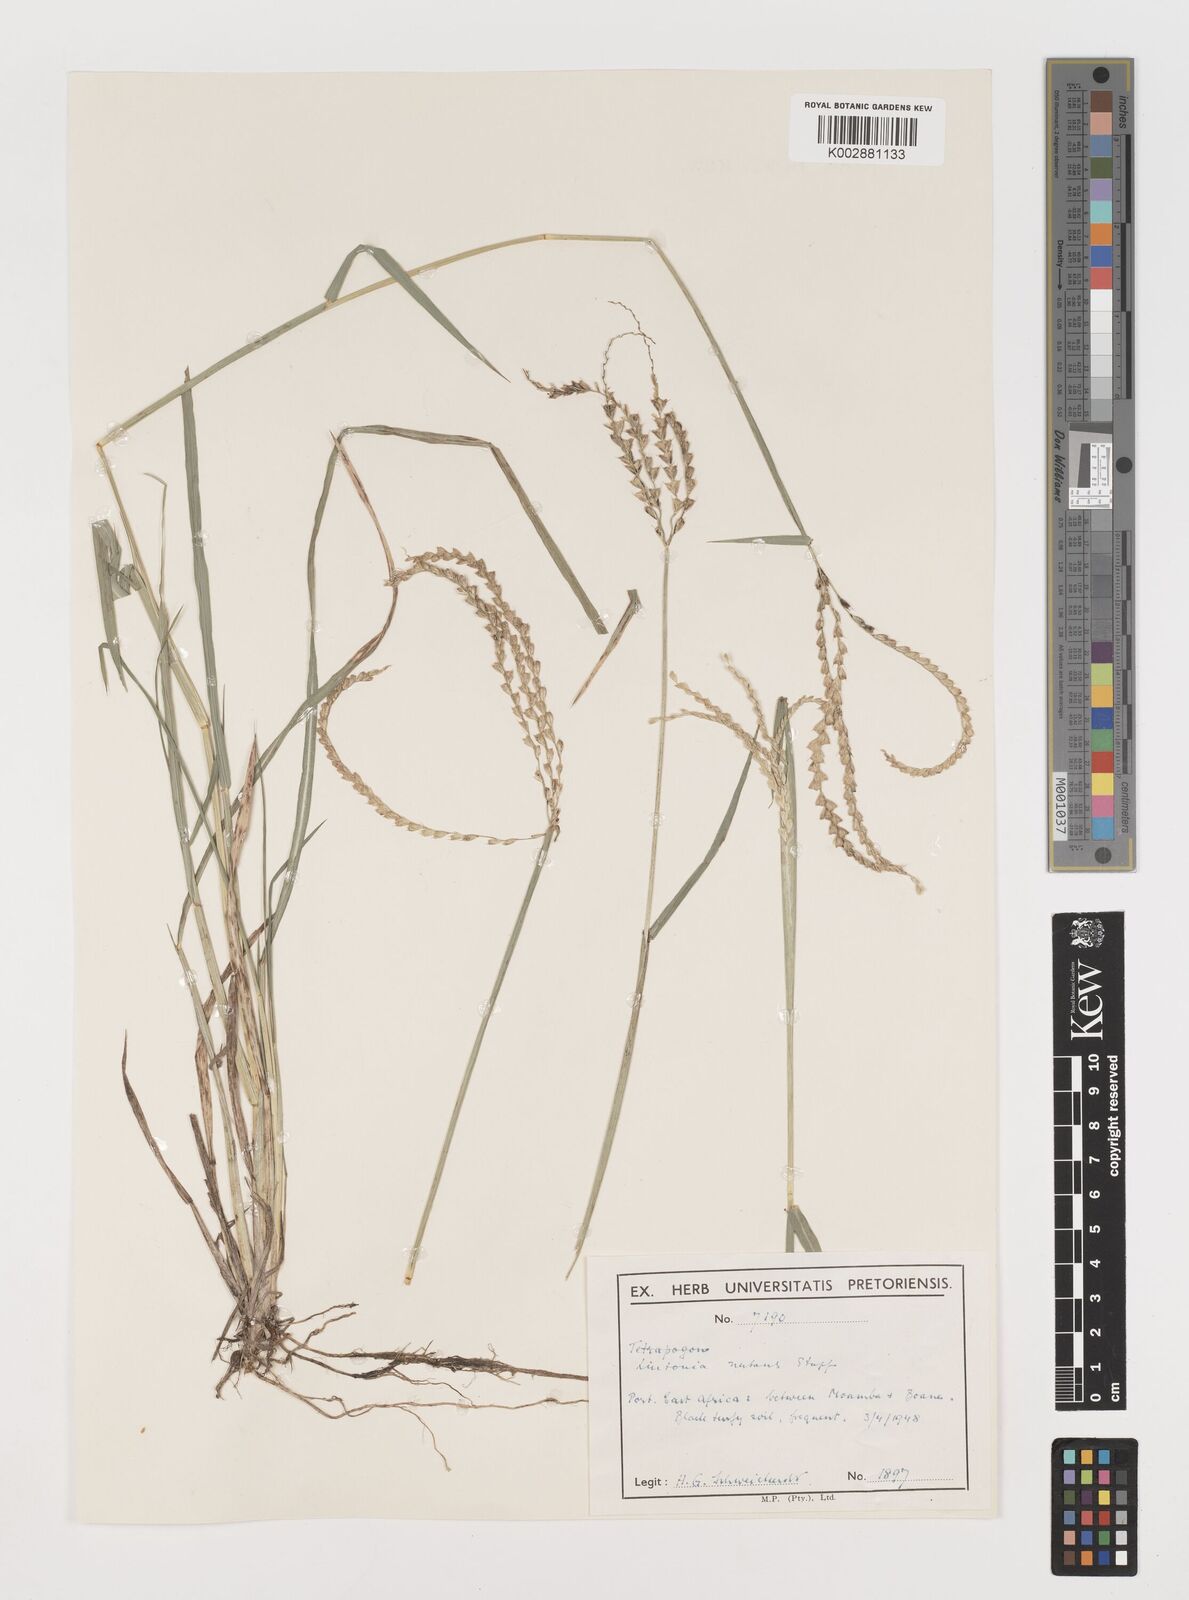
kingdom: Plantae
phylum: Tracheophyta
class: Liliopsida
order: Poales
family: Poaceae
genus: Chloris
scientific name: Chloris nutans
